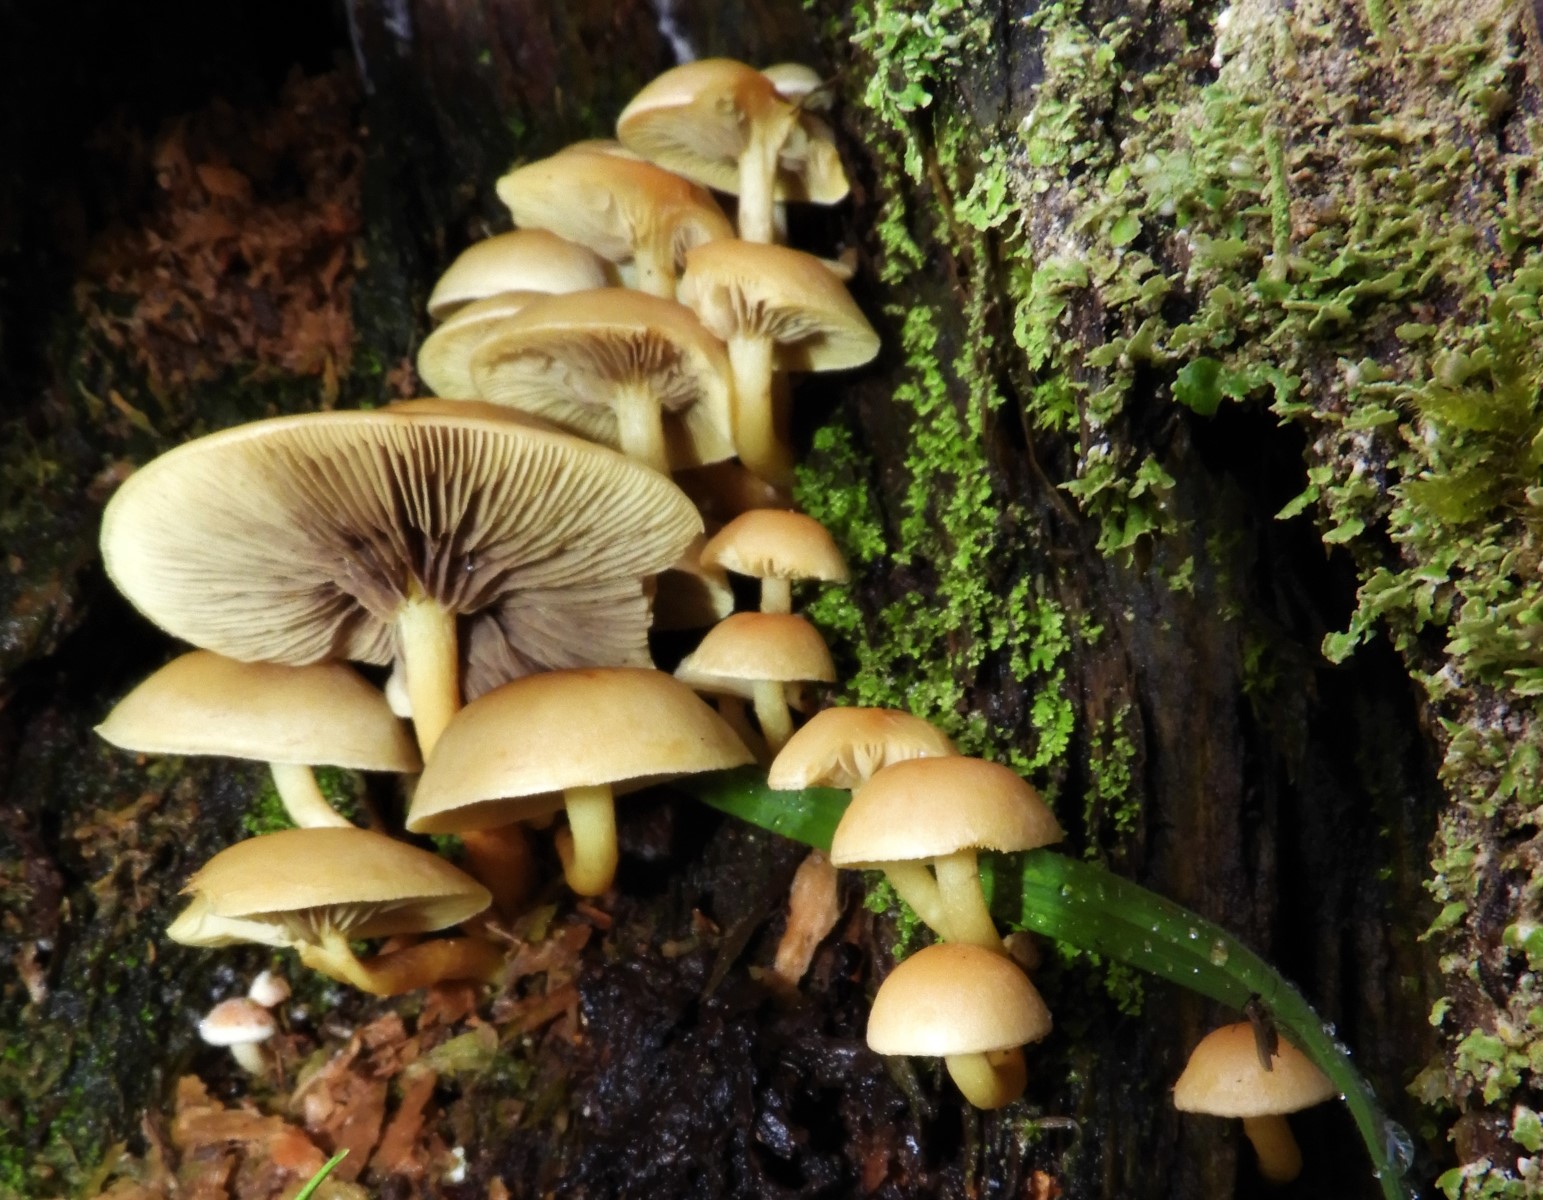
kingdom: Fungi
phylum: Basidiomycota
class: Agaricomycetes
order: Agaricales
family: Strophariaceae
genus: Hypholoma
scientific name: Hypholoma fasciculare
